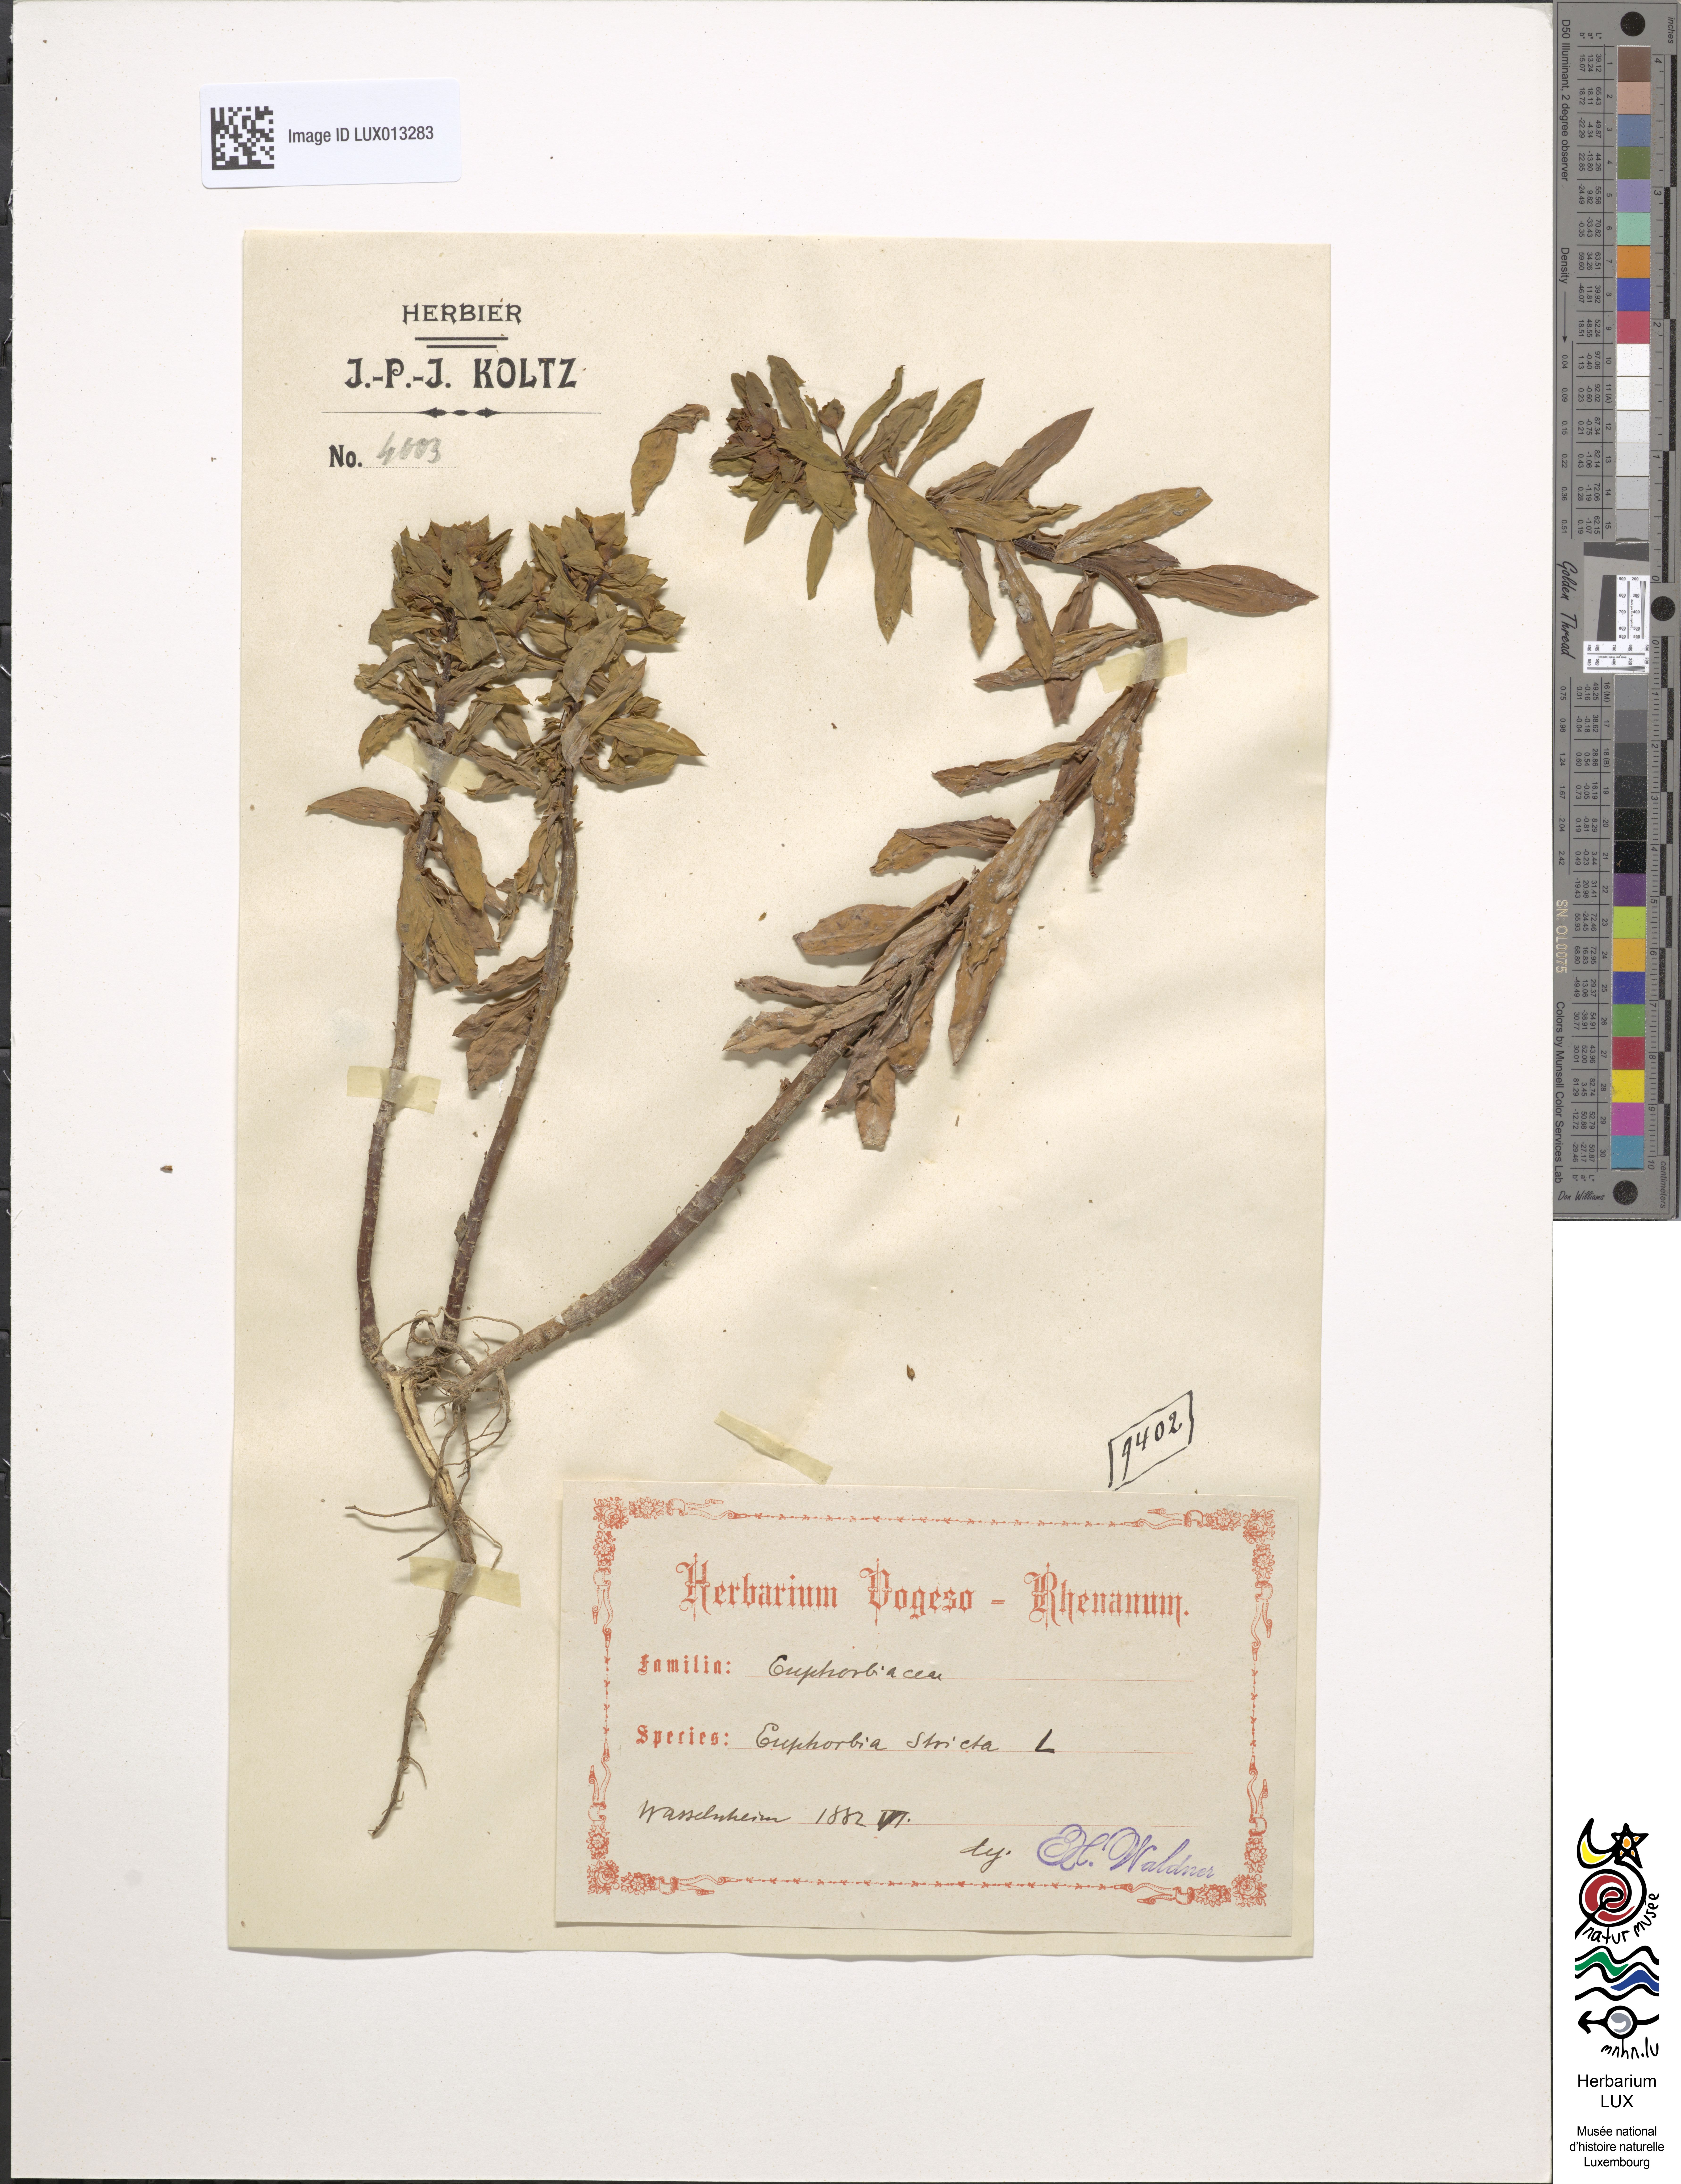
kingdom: Plantae
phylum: Tracheophyta
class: Magnoliopsida
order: Malpighiales
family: Euphorbiaceae
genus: Euphorbia
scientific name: Euphorbia stricta
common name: Upright spurge
